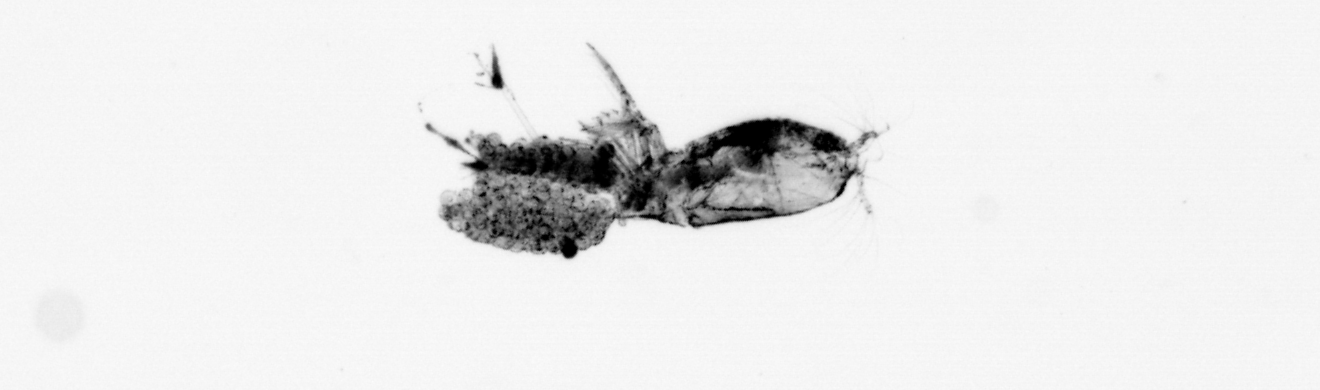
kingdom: Animalia
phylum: Arthropoda
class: Copepoda
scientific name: Copepoda
